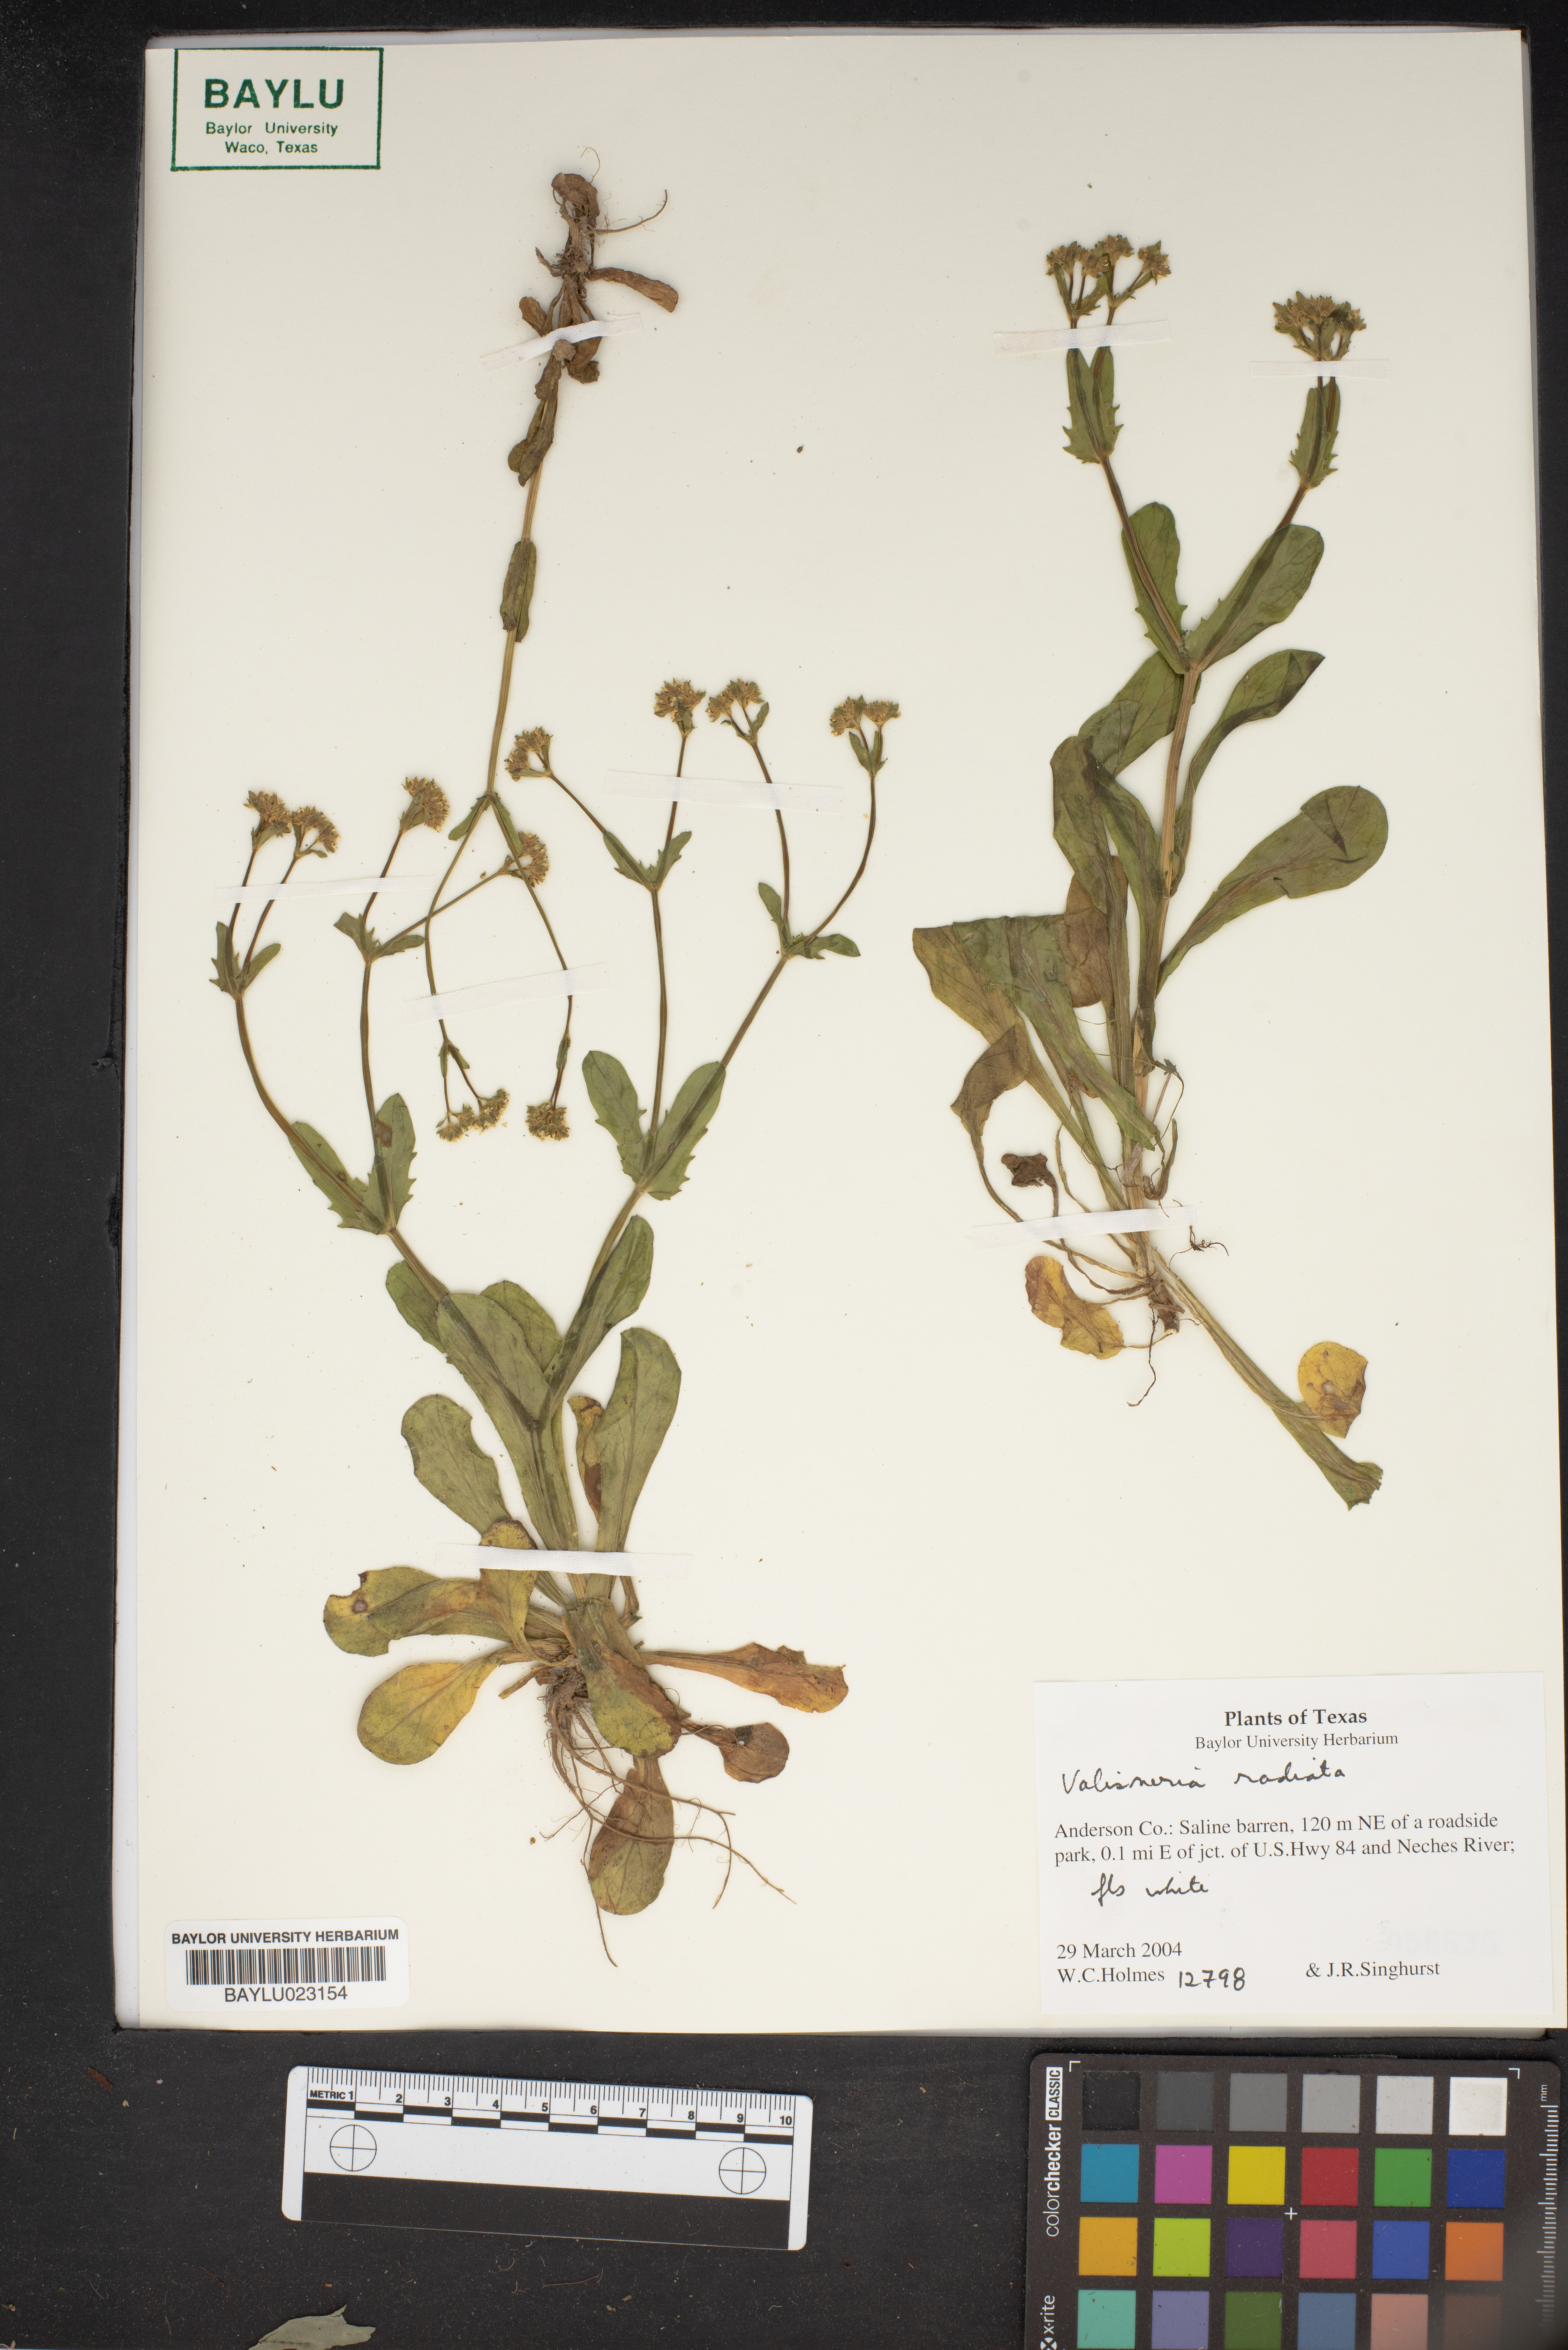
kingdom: Plantae
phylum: Tracheophyta
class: Magnoliopsida
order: Dipsacales
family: Caprifoliaceae
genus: Valerianella
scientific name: Valerianella radiata
